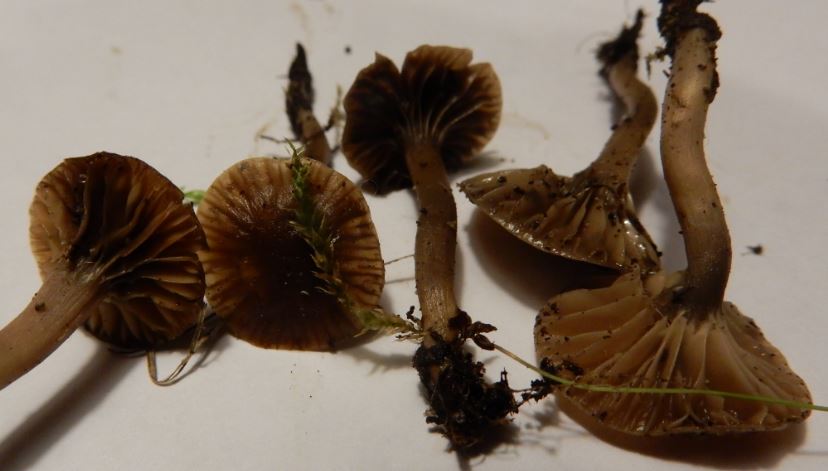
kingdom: Fungi
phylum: Basidiomycota
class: Agaricomycetes
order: Agaricales
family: Clavariaceae
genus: Hodophilus
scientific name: Hodophilus foetens
